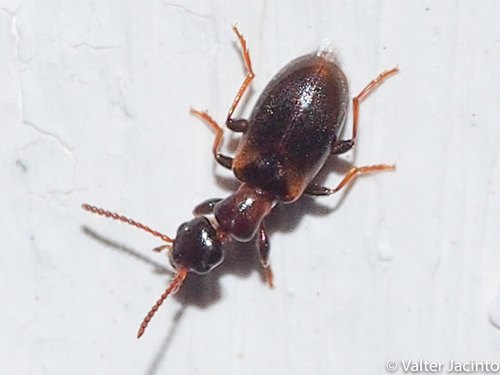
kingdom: Animalia
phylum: Arthropoda
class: Insecta
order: Coleoptera
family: Anthicidae
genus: Omonadus
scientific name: Omonadus
